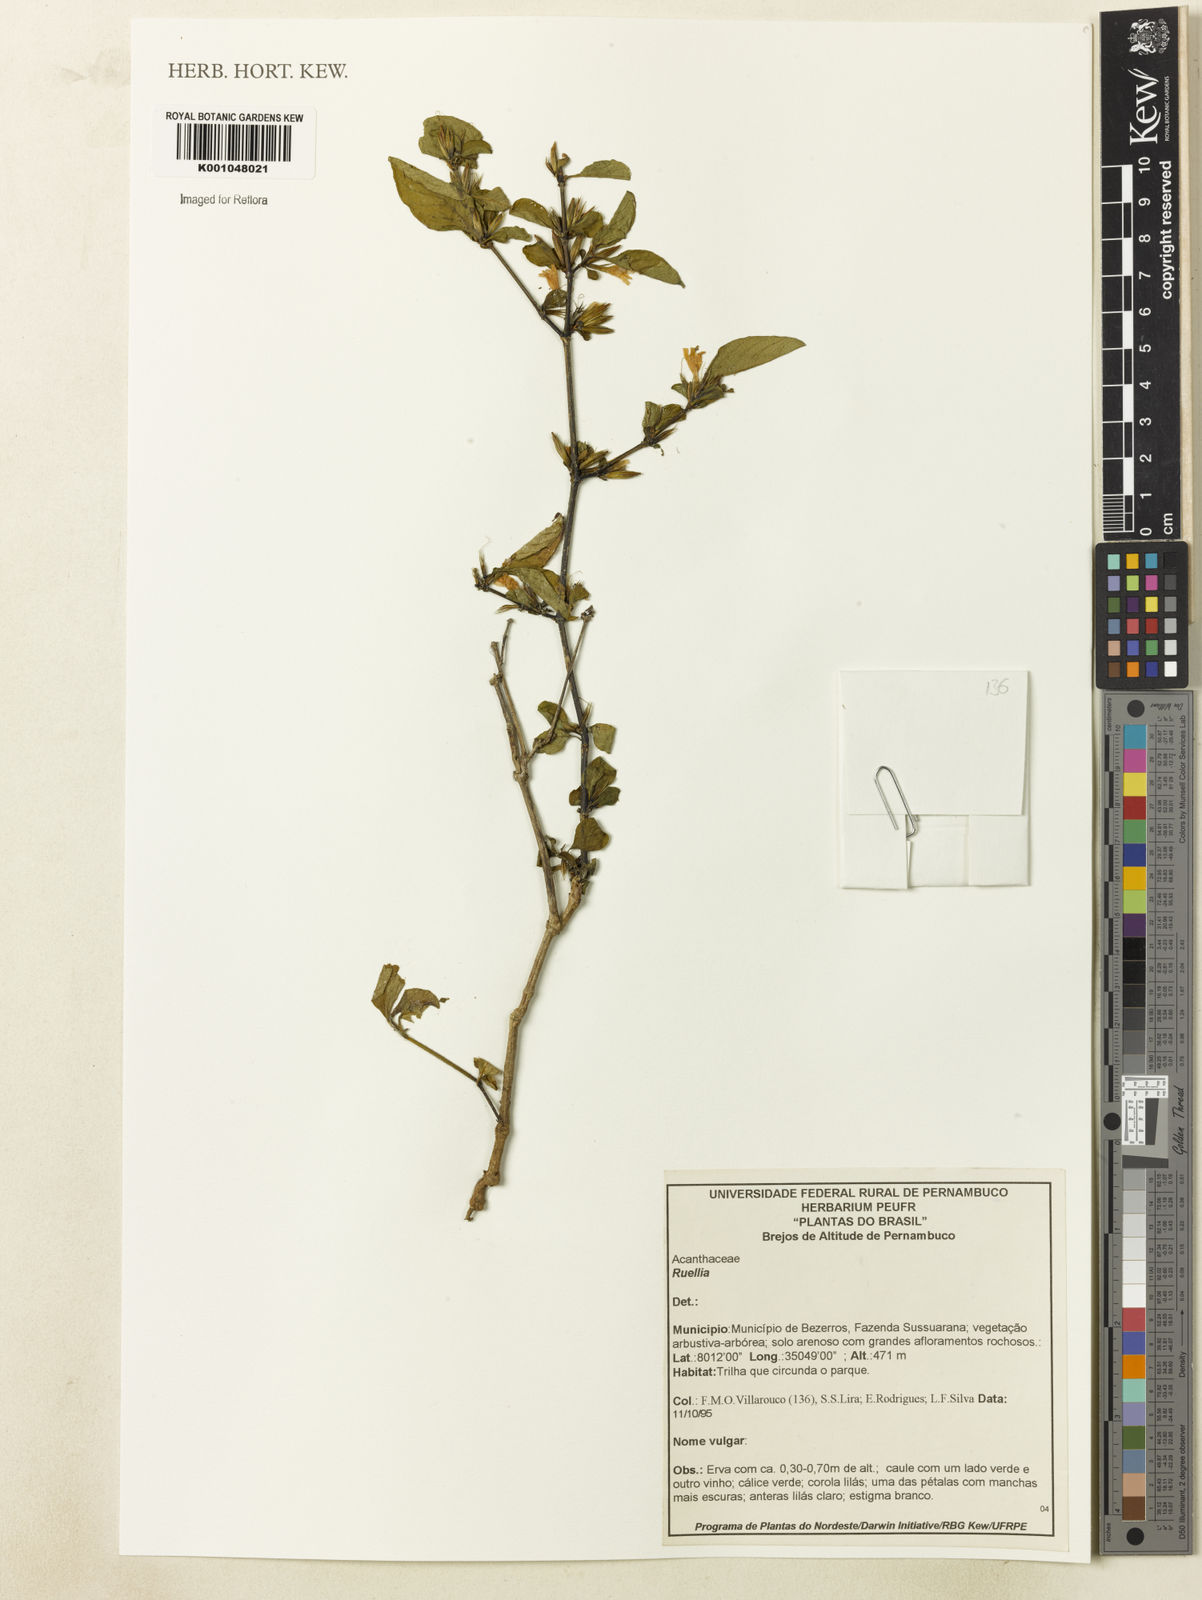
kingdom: Plantae
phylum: Tracheophyta
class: Magnoliopsida
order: Lamiales
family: Acanthaceae
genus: Dyschoriste
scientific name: Dyschoriste
